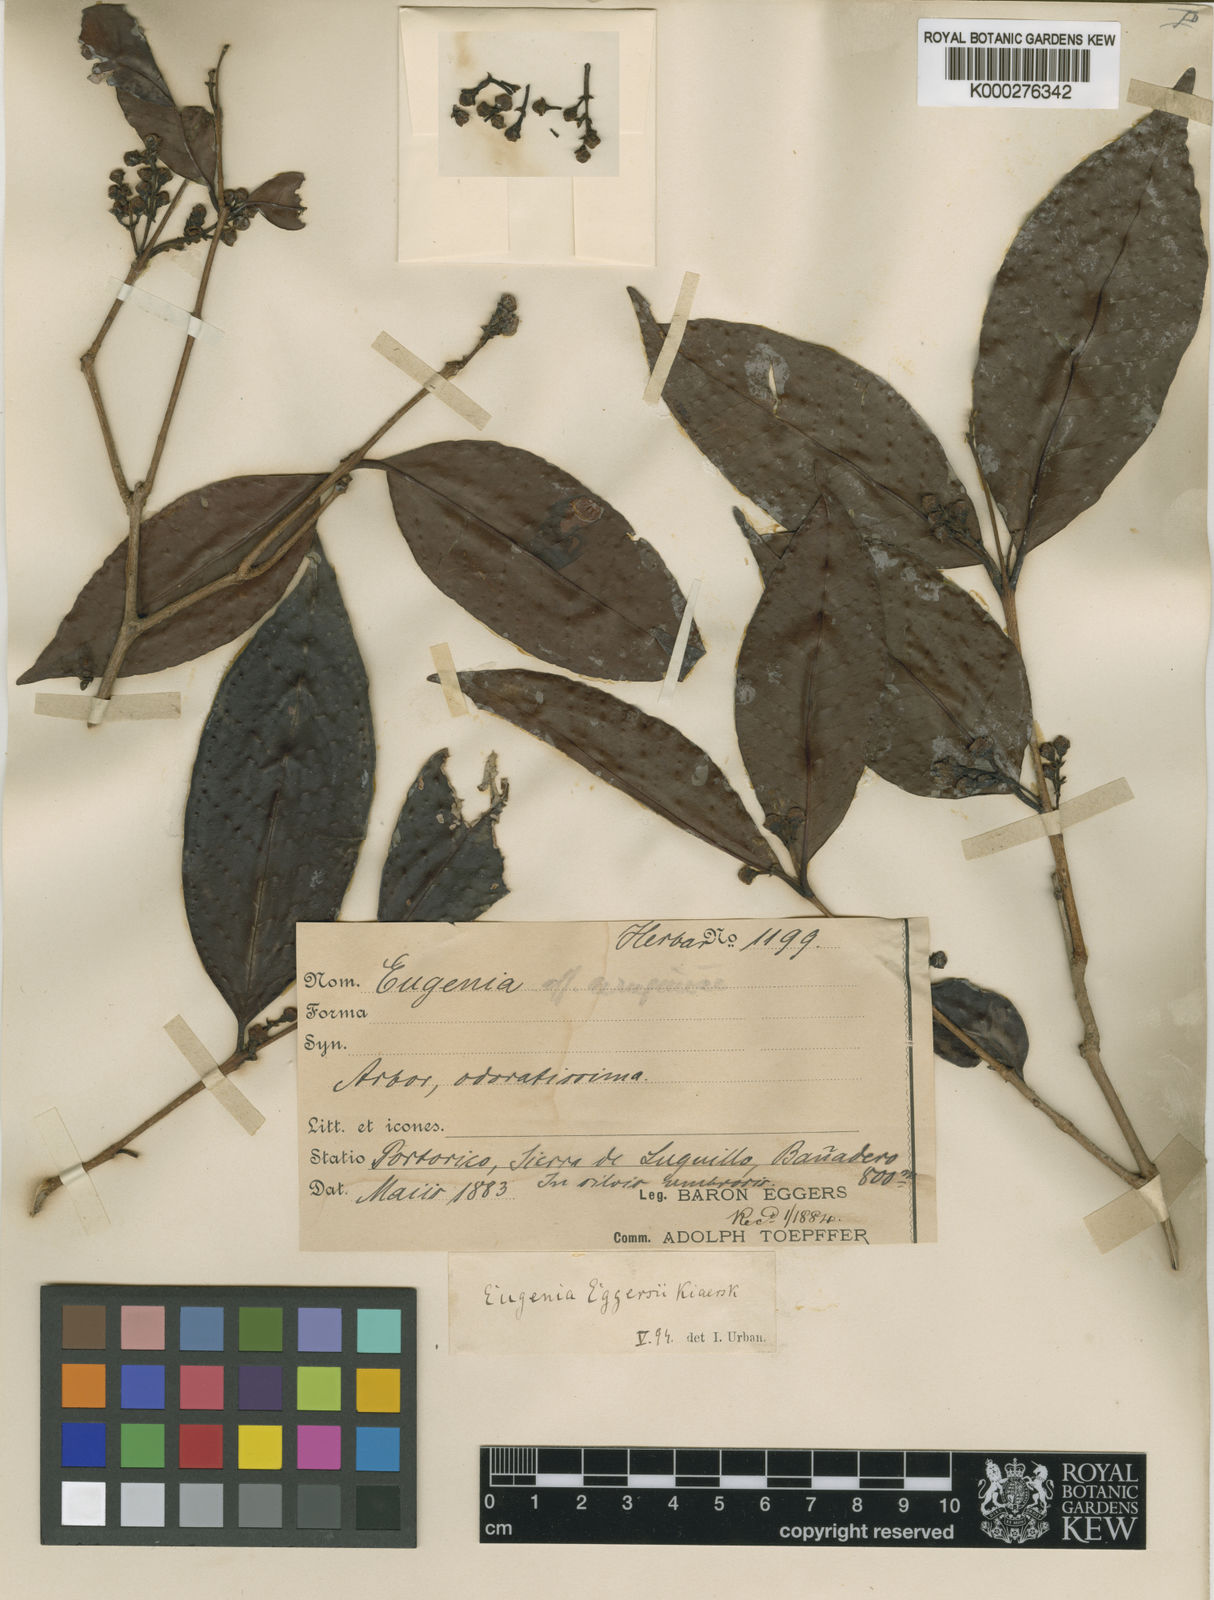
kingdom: Plantae
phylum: Tracheophyta
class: Magnoliopsida
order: Myrtales
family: Myrtaceae
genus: Eugenia
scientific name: Eugenia eggersii
